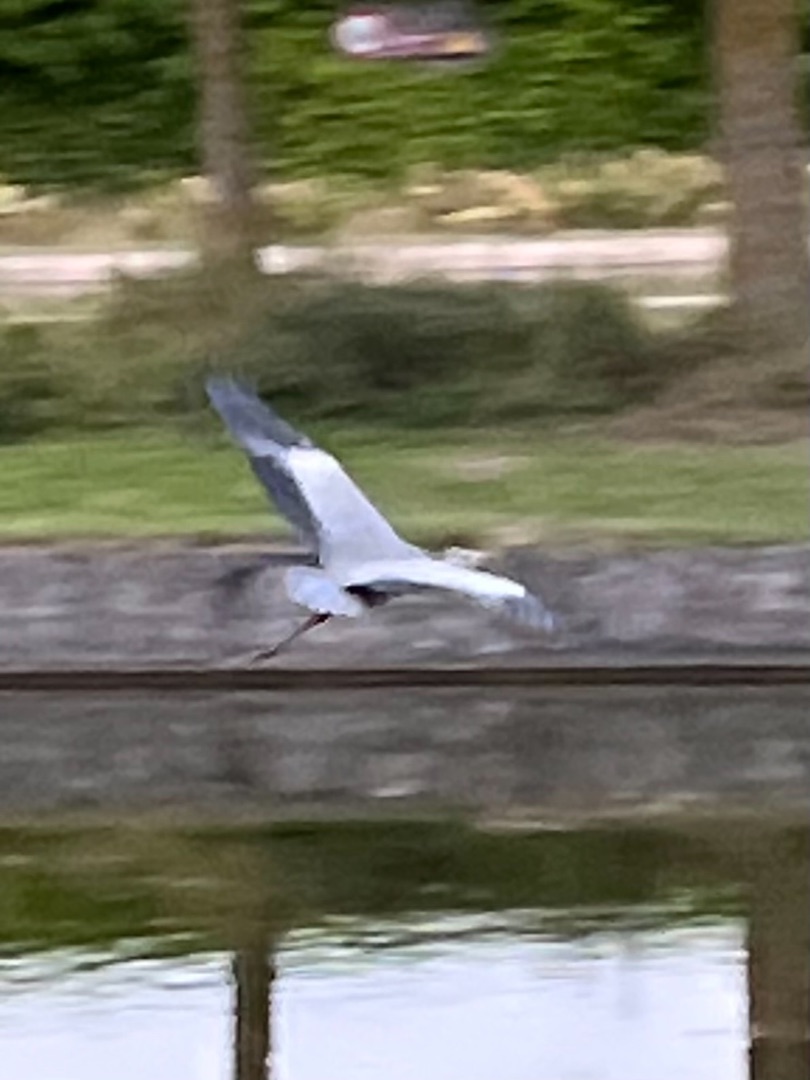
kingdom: Animalia
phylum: Chordata
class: Aves
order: Pelecaniformes
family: Ardeidae
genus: Ardea
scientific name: Ardea cinerea
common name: Fiskehejre
